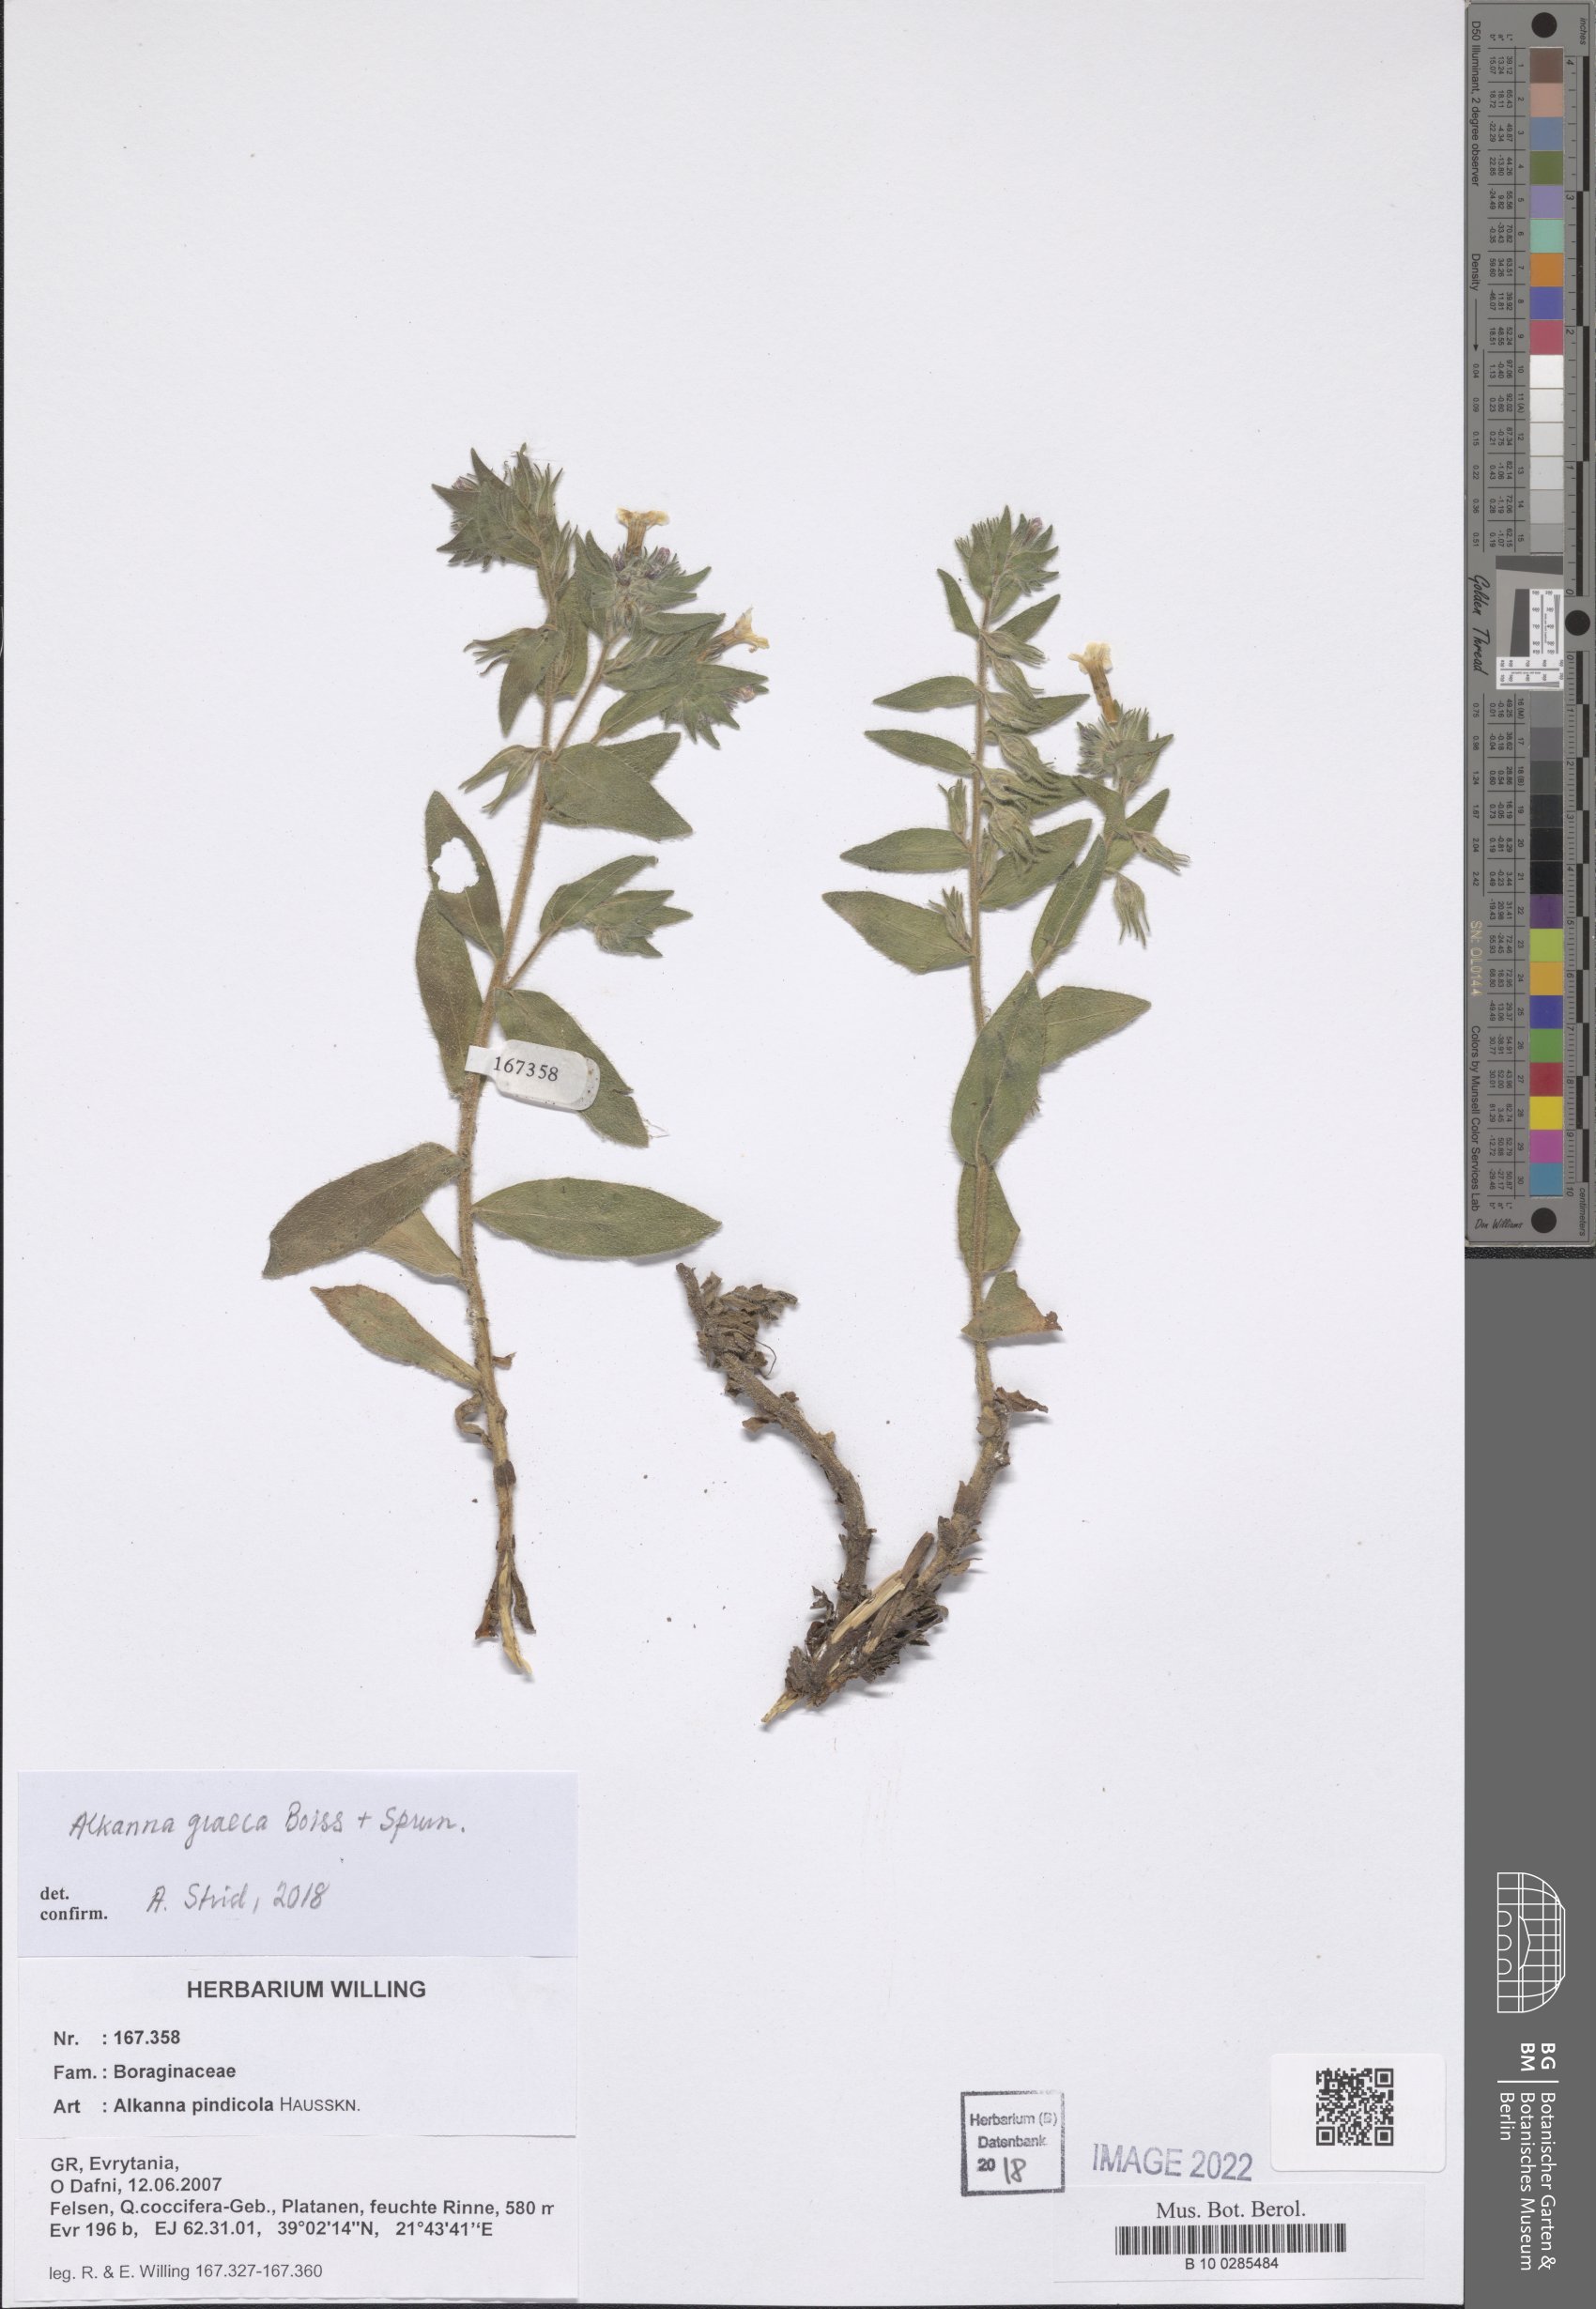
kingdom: Plantae
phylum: Tracheophyta
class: Magnoliopsida
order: Boraginales
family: Boraginaceae
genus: Alkanna
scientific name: Alkanna calliensis
